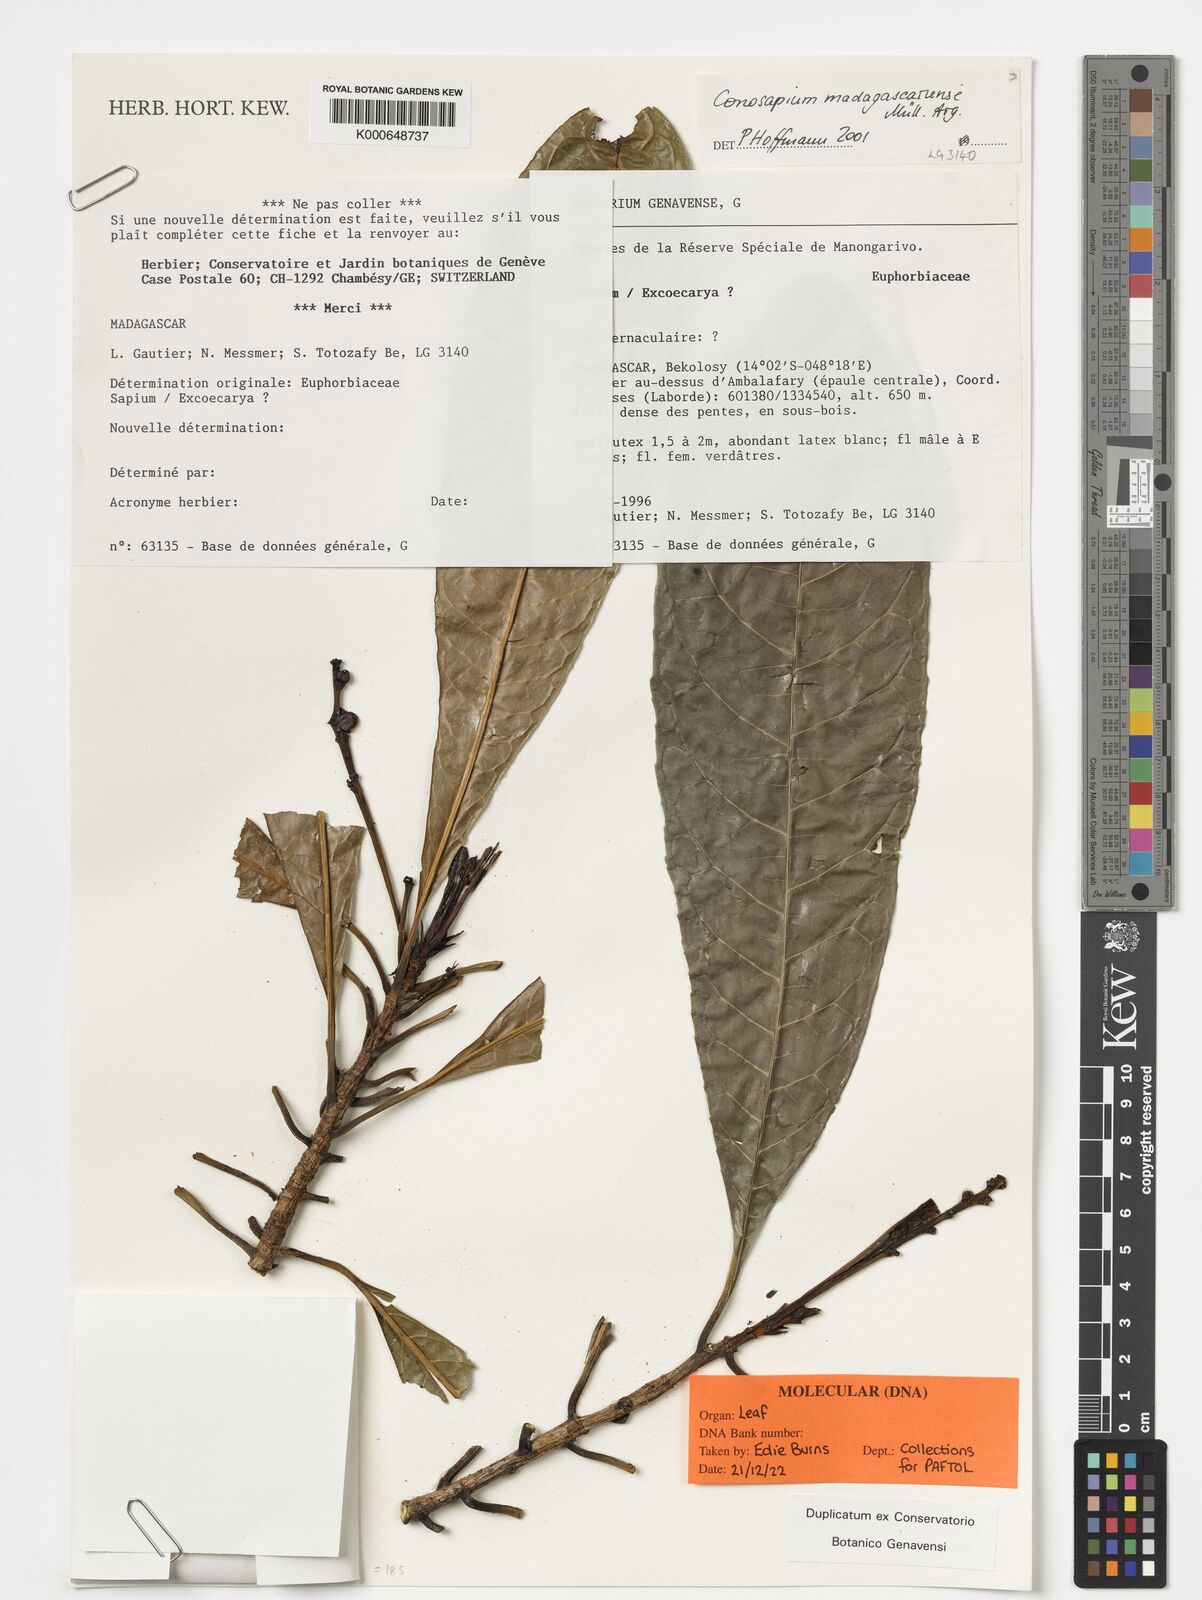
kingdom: Plantae
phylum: Tracheophyta
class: Magnoliopsida
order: Malpighiales
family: Euphorbiaceae
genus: Conosapium
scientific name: Conosapium madagascariense
